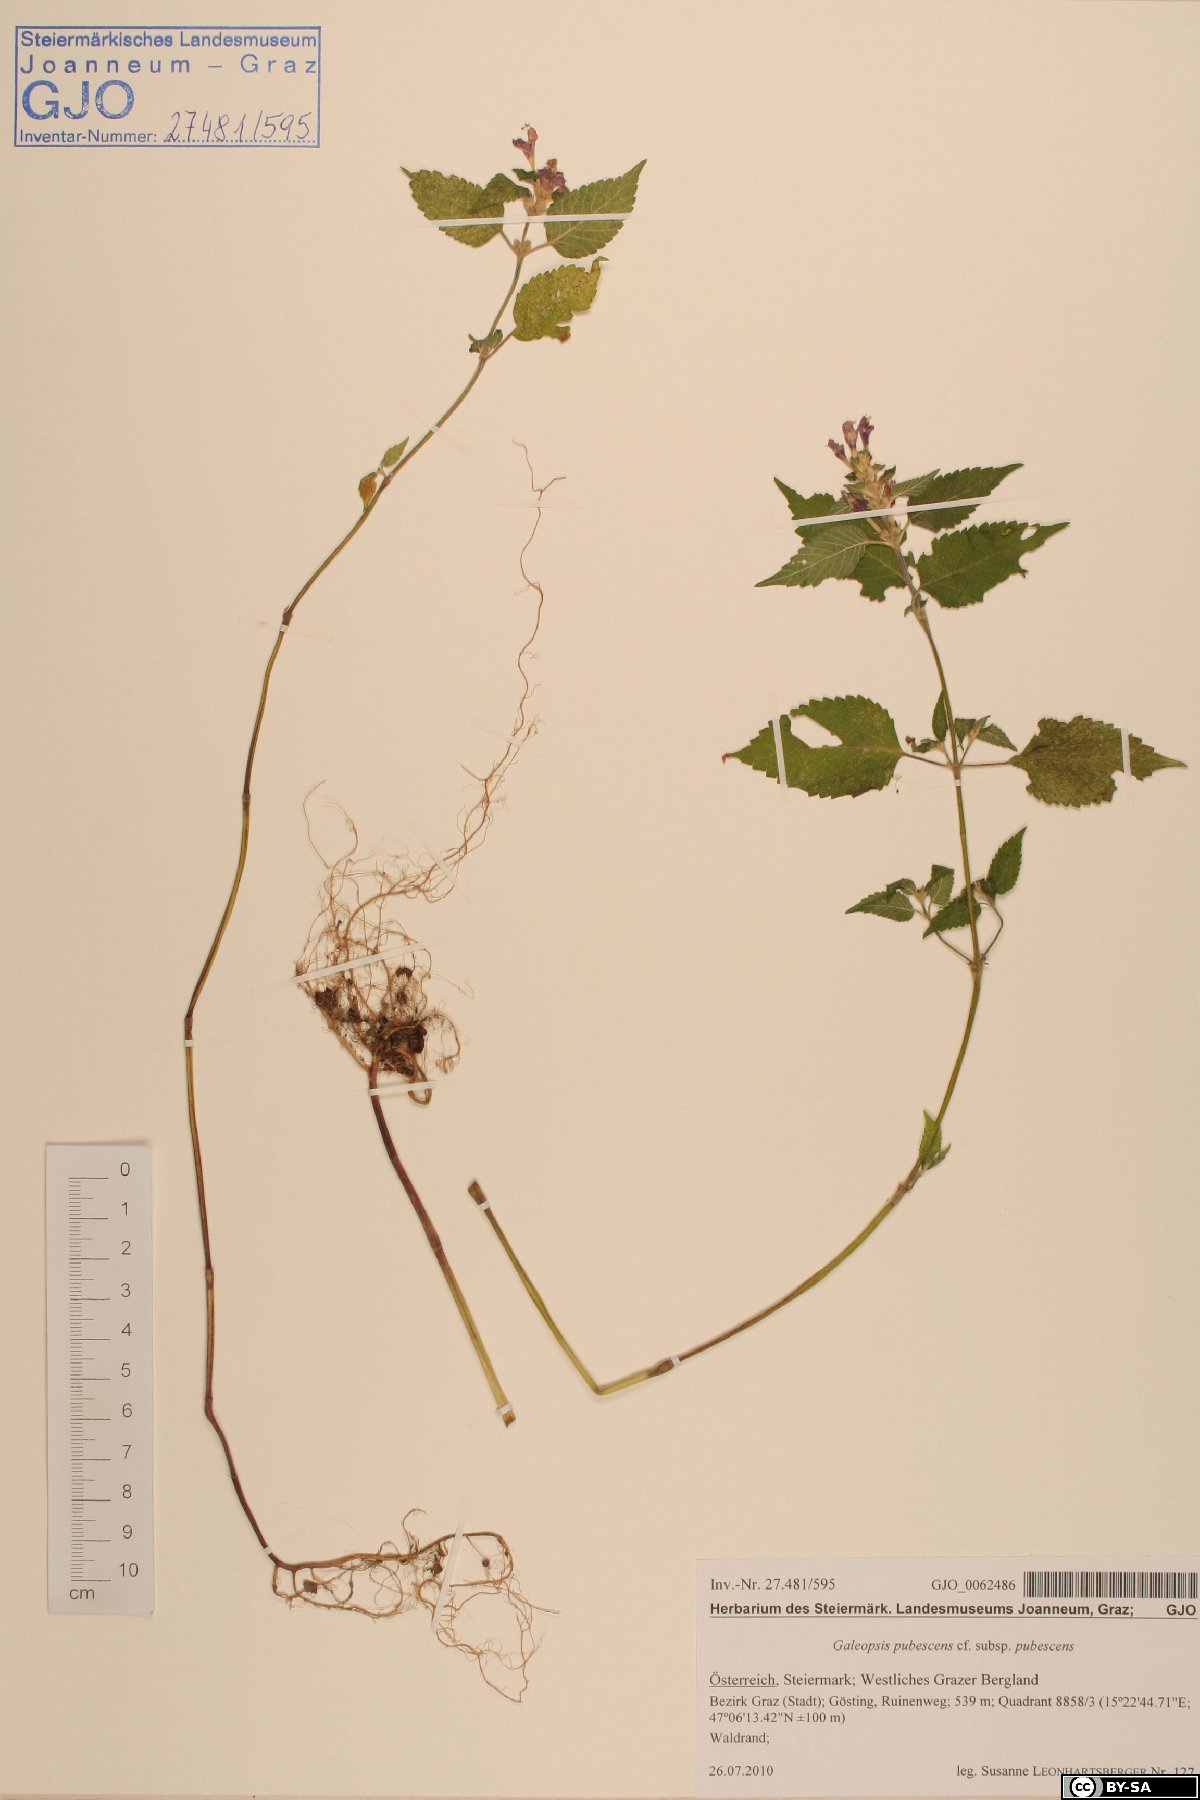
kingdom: Plantae
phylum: Tracheophyta
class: Magnoliopsida
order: Lamiales
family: Lamiaceae
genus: Galeopsis
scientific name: Galeopsis pubescens
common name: Downy hemp-nettle
